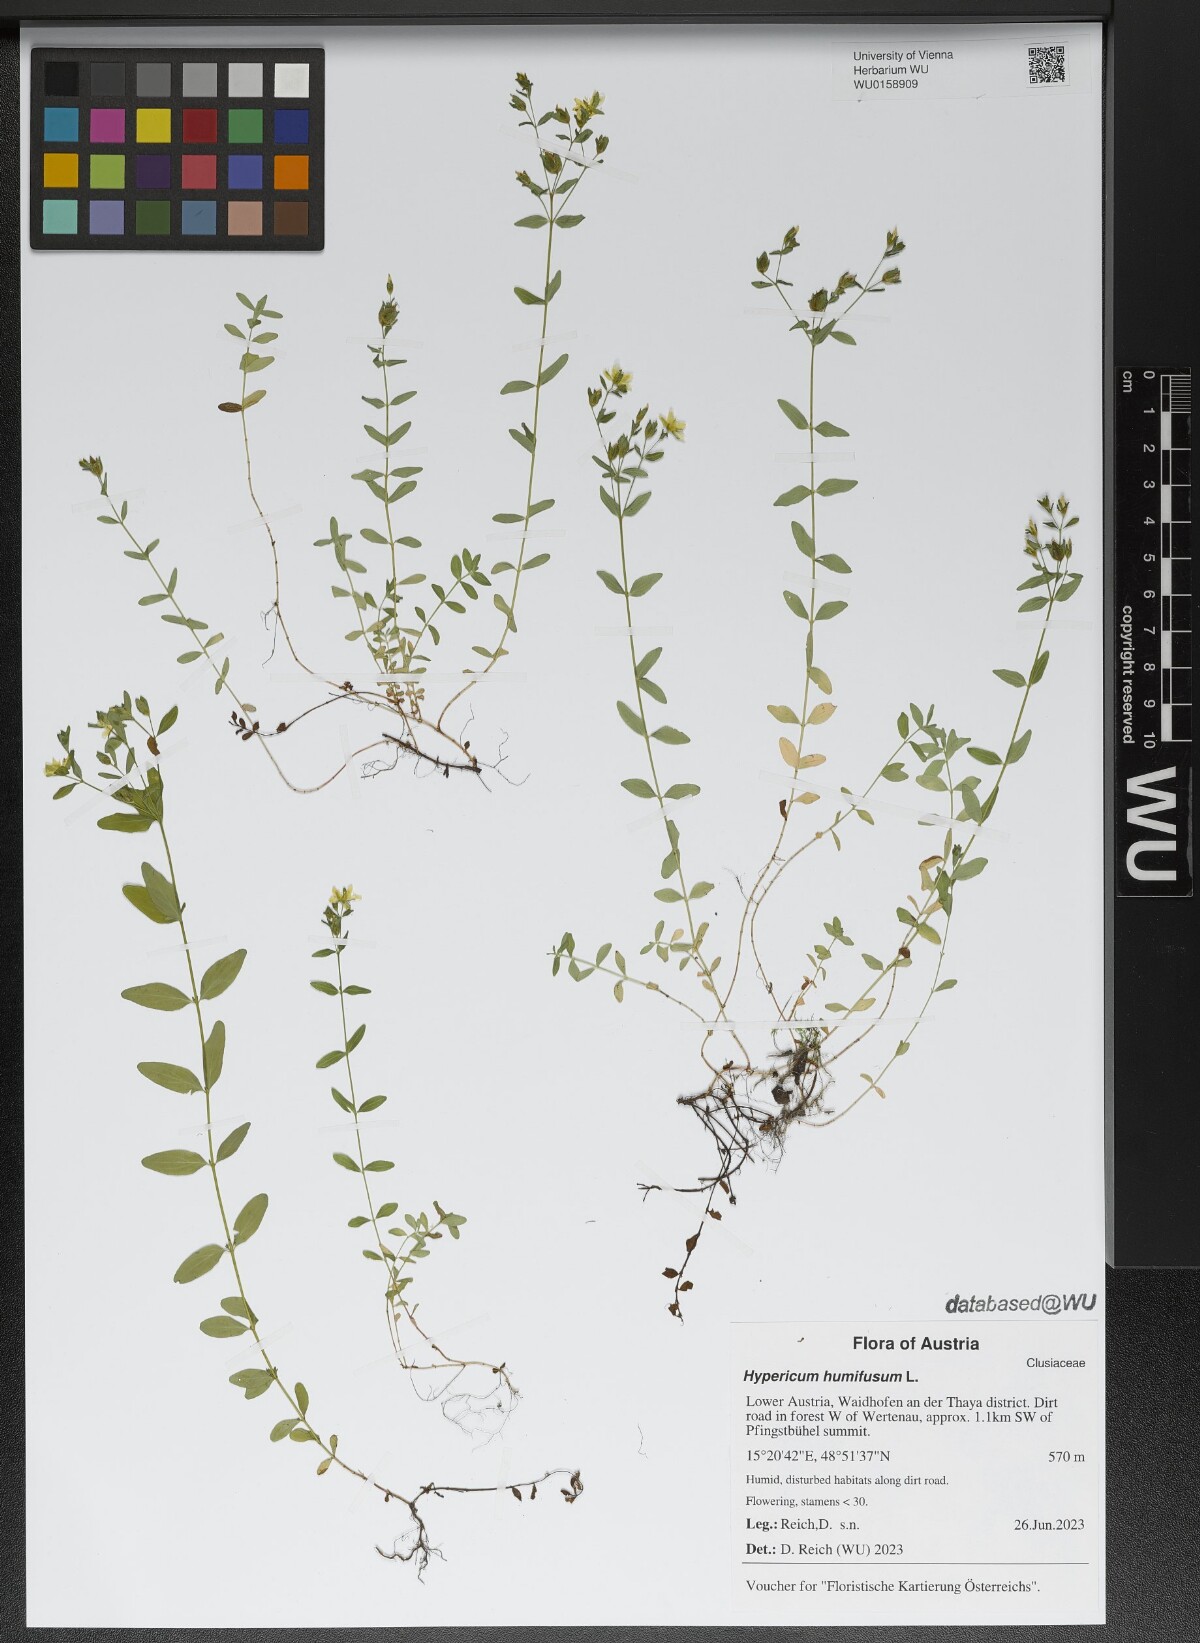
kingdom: Plantae
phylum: Tracheophyta
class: Magnoliopsida
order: Malpighiales
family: Hypericaceae
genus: Hypericum
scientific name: Hypericum humifusum
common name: Trailing st. john's-wort
